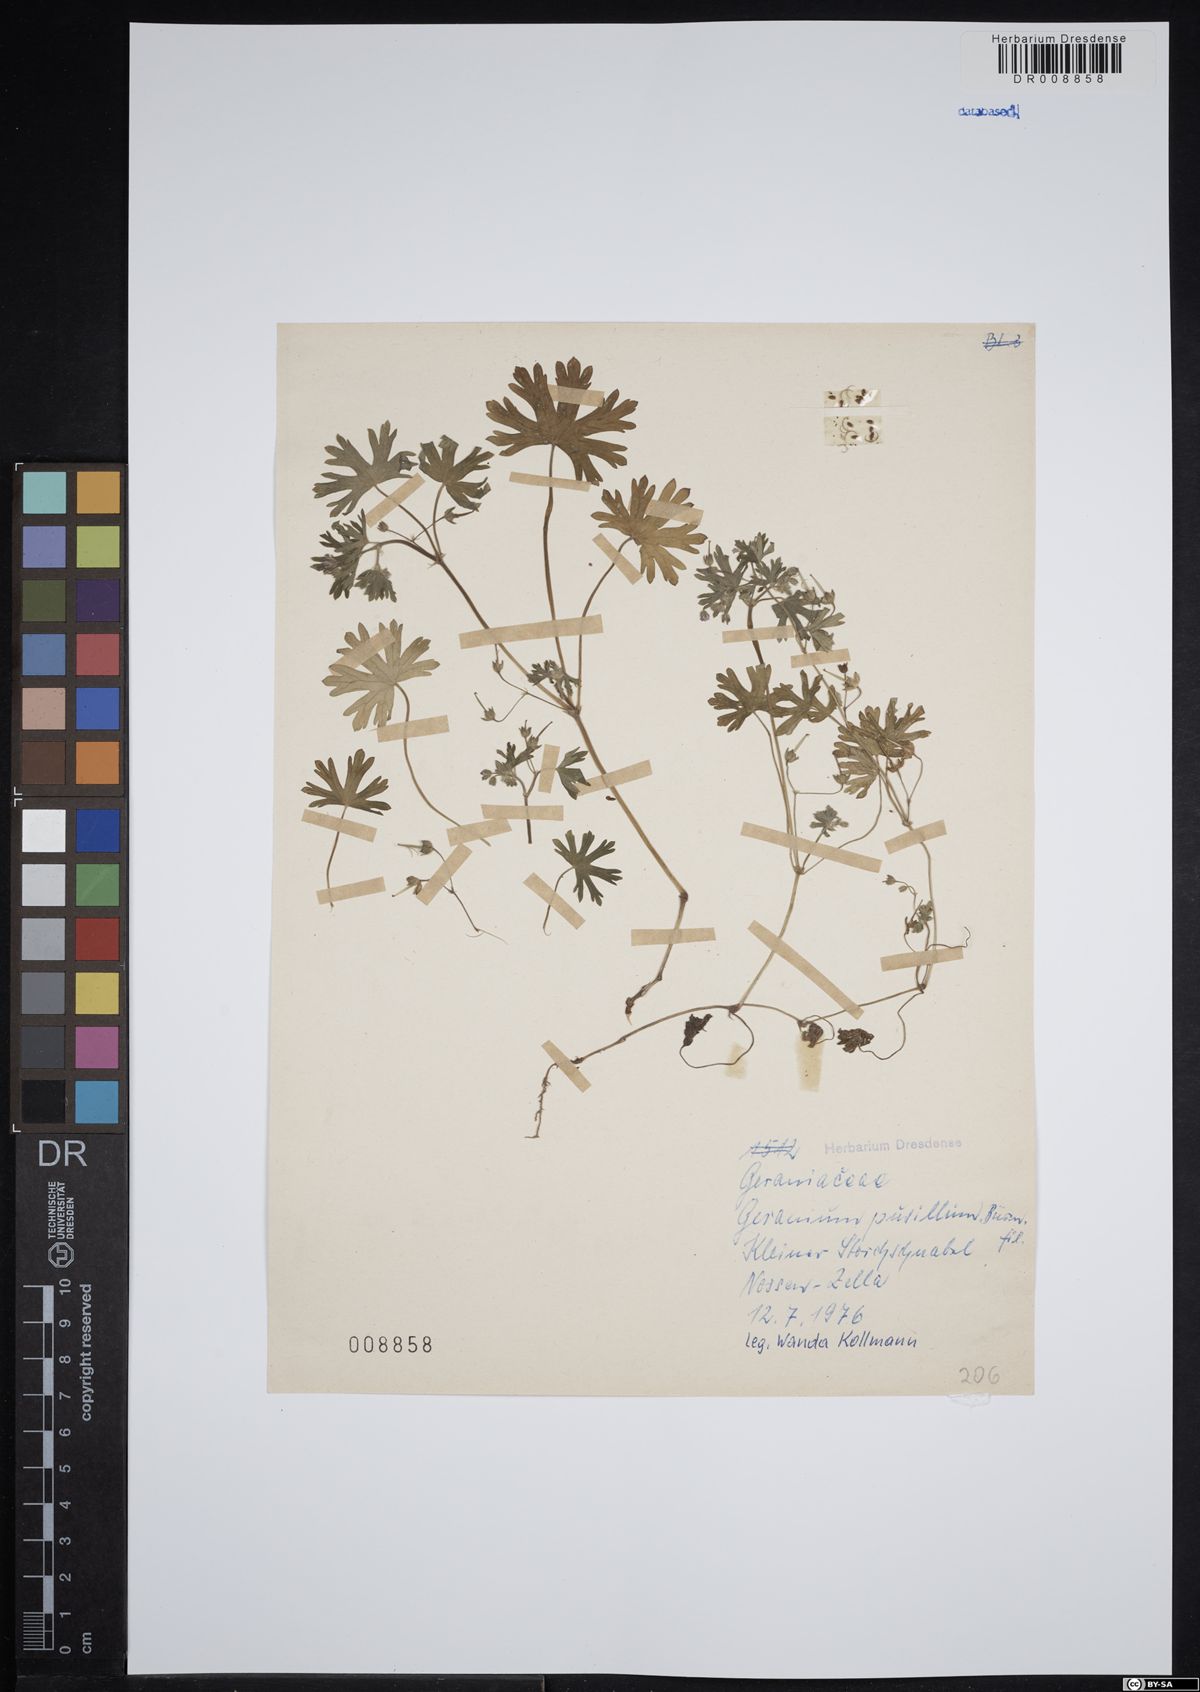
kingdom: Plantae
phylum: Tracheophyta
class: Magnoliopsida
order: Geraniales
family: Geraniaceae
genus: Geranium
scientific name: Geranium pusillum
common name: Small geranium
